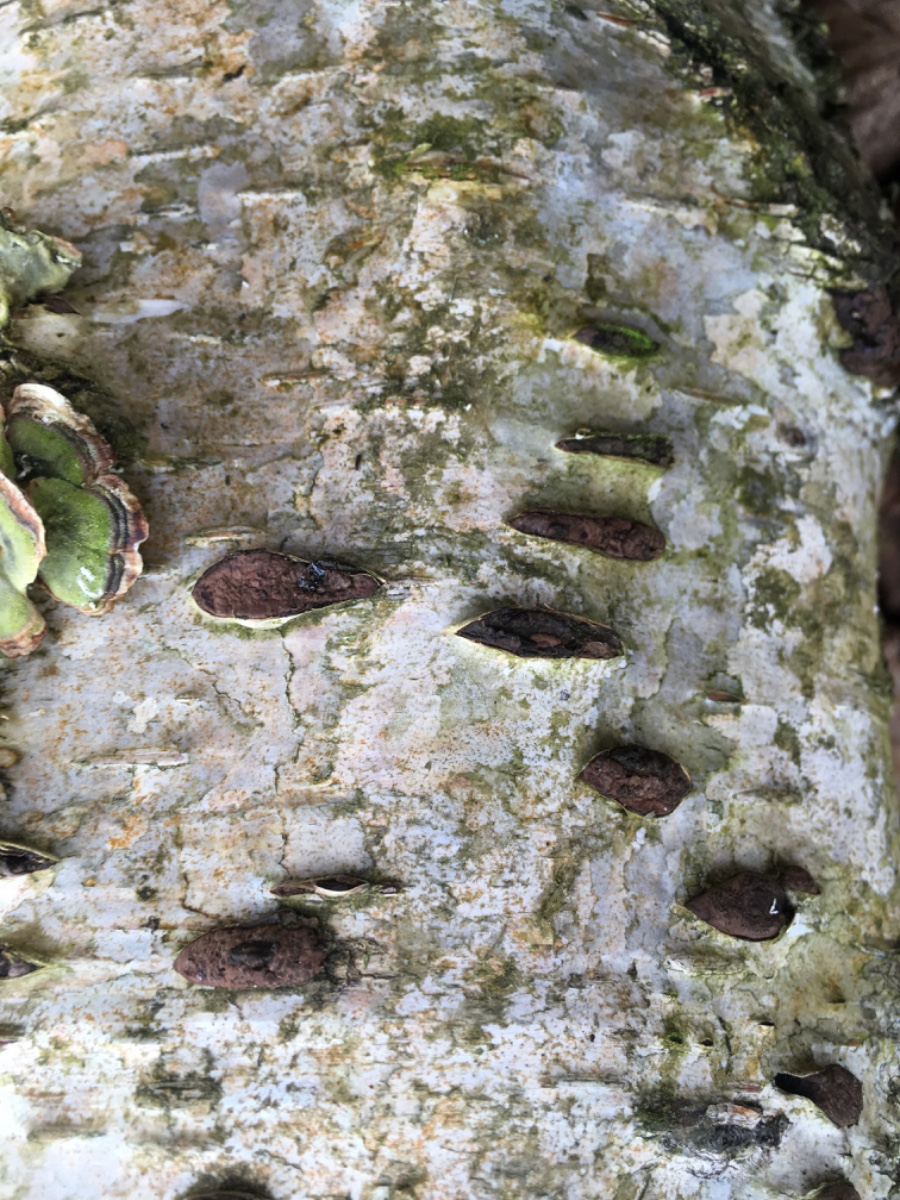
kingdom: Fungi
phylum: Ascomycota
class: Sordariomycetes
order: Xylariales
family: Hypoxylaceae
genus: Jackrogersella
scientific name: Jackrogersella multiformis
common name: foranderlig kulbær
